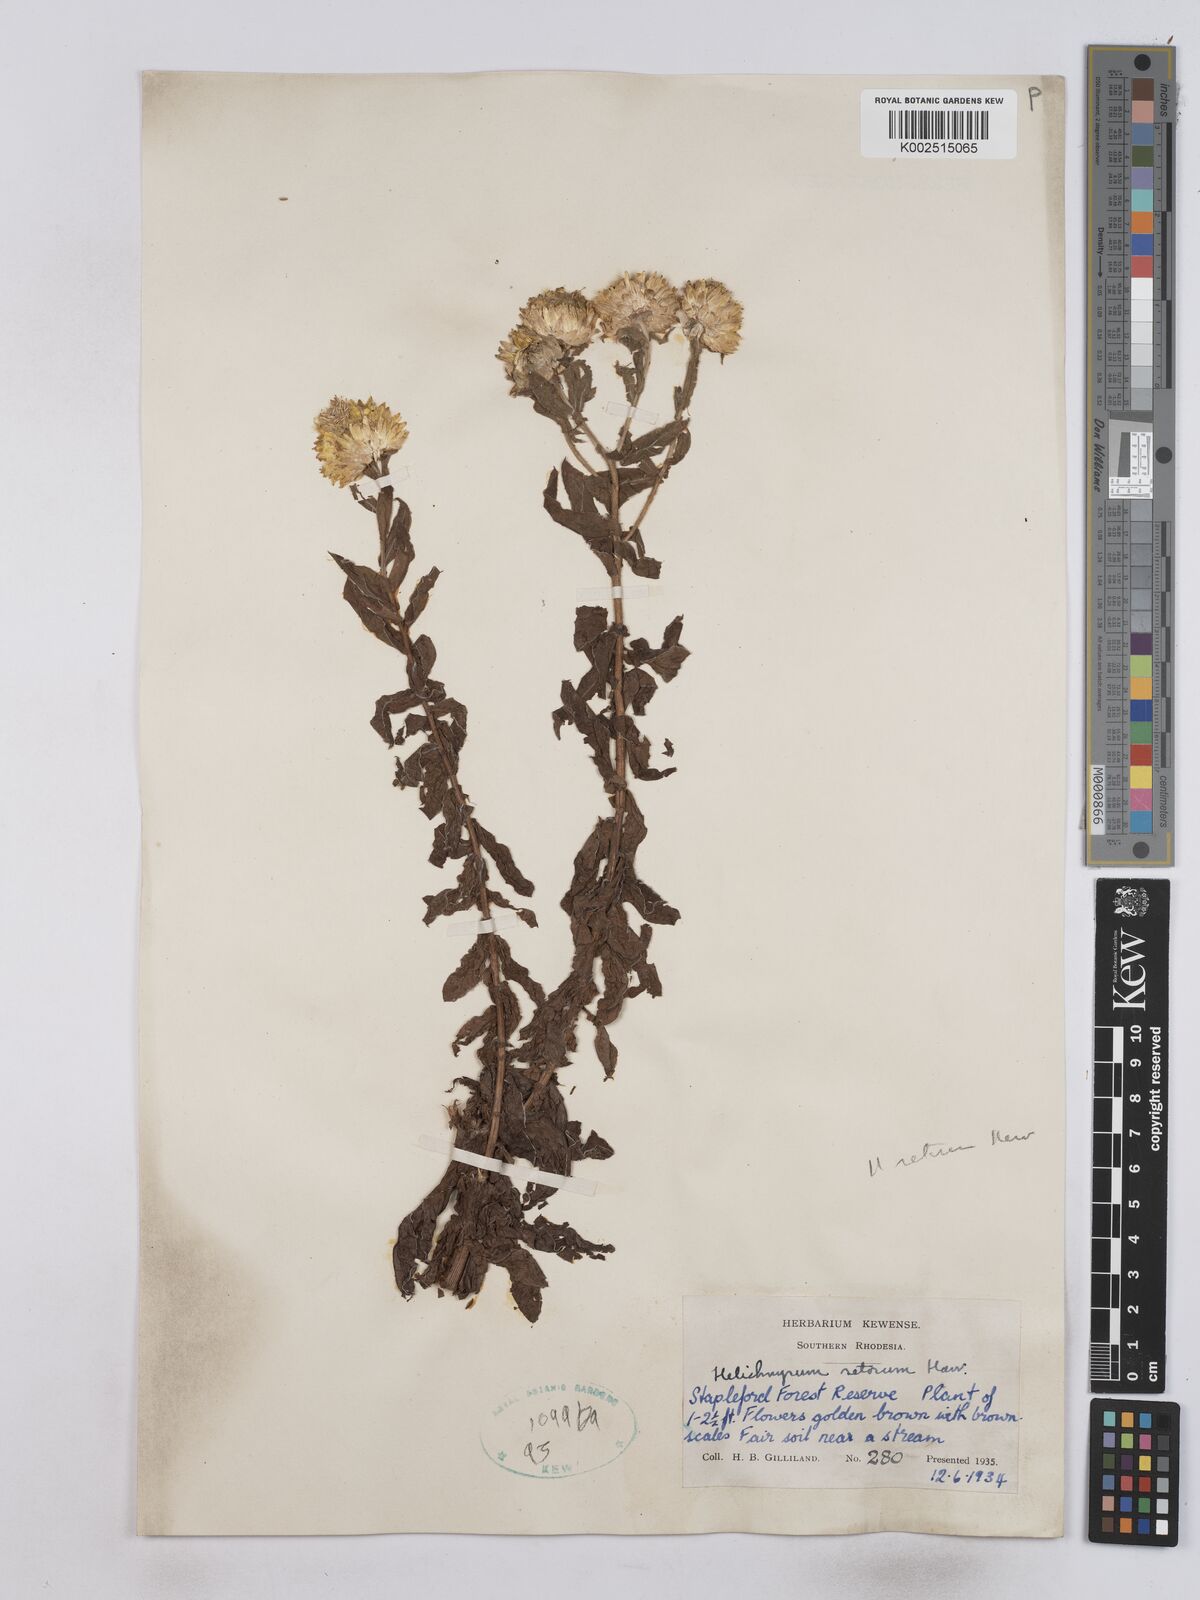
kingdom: Plantae
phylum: Tracheophyta
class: Magnoliopsida
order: Asterales
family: Asteraceae
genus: Helichrysum
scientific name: Helichrysum setosum
